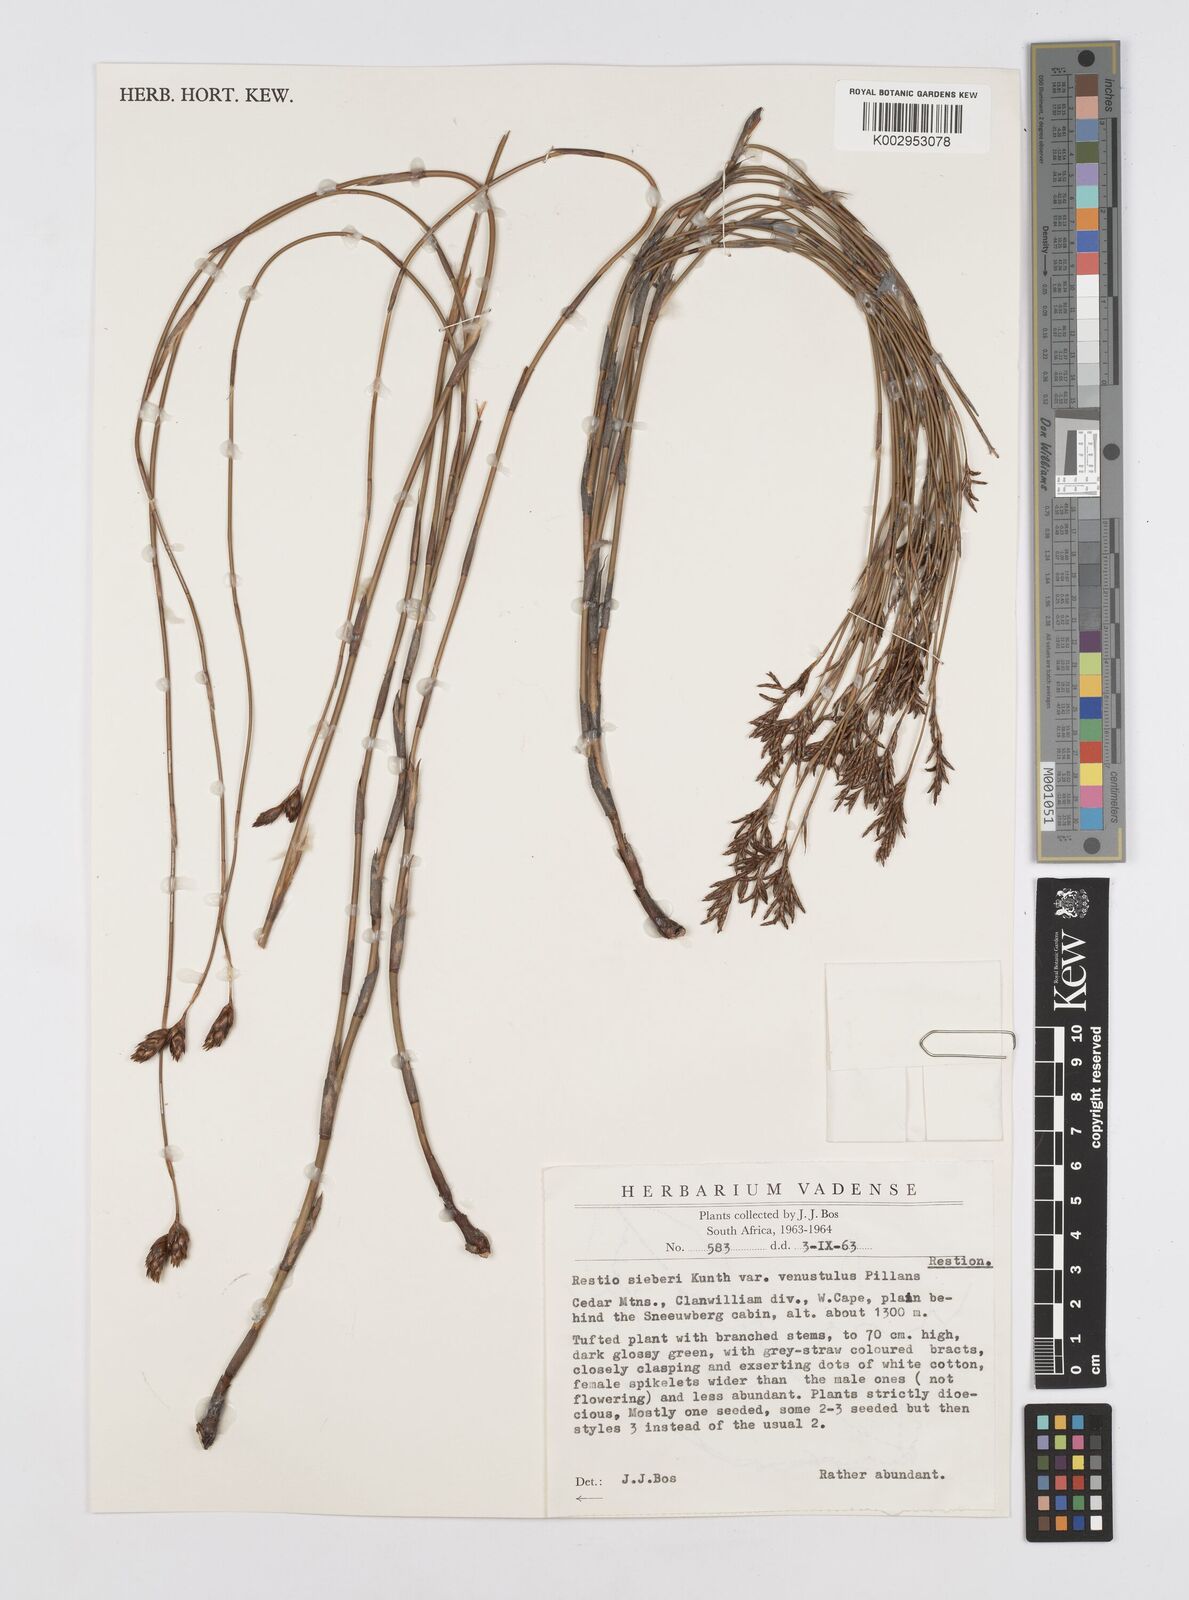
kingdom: Plantae
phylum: Tracheophyta
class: Liliopsida
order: Poales
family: Restionaceae
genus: Restio
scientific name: Restio sieberi
